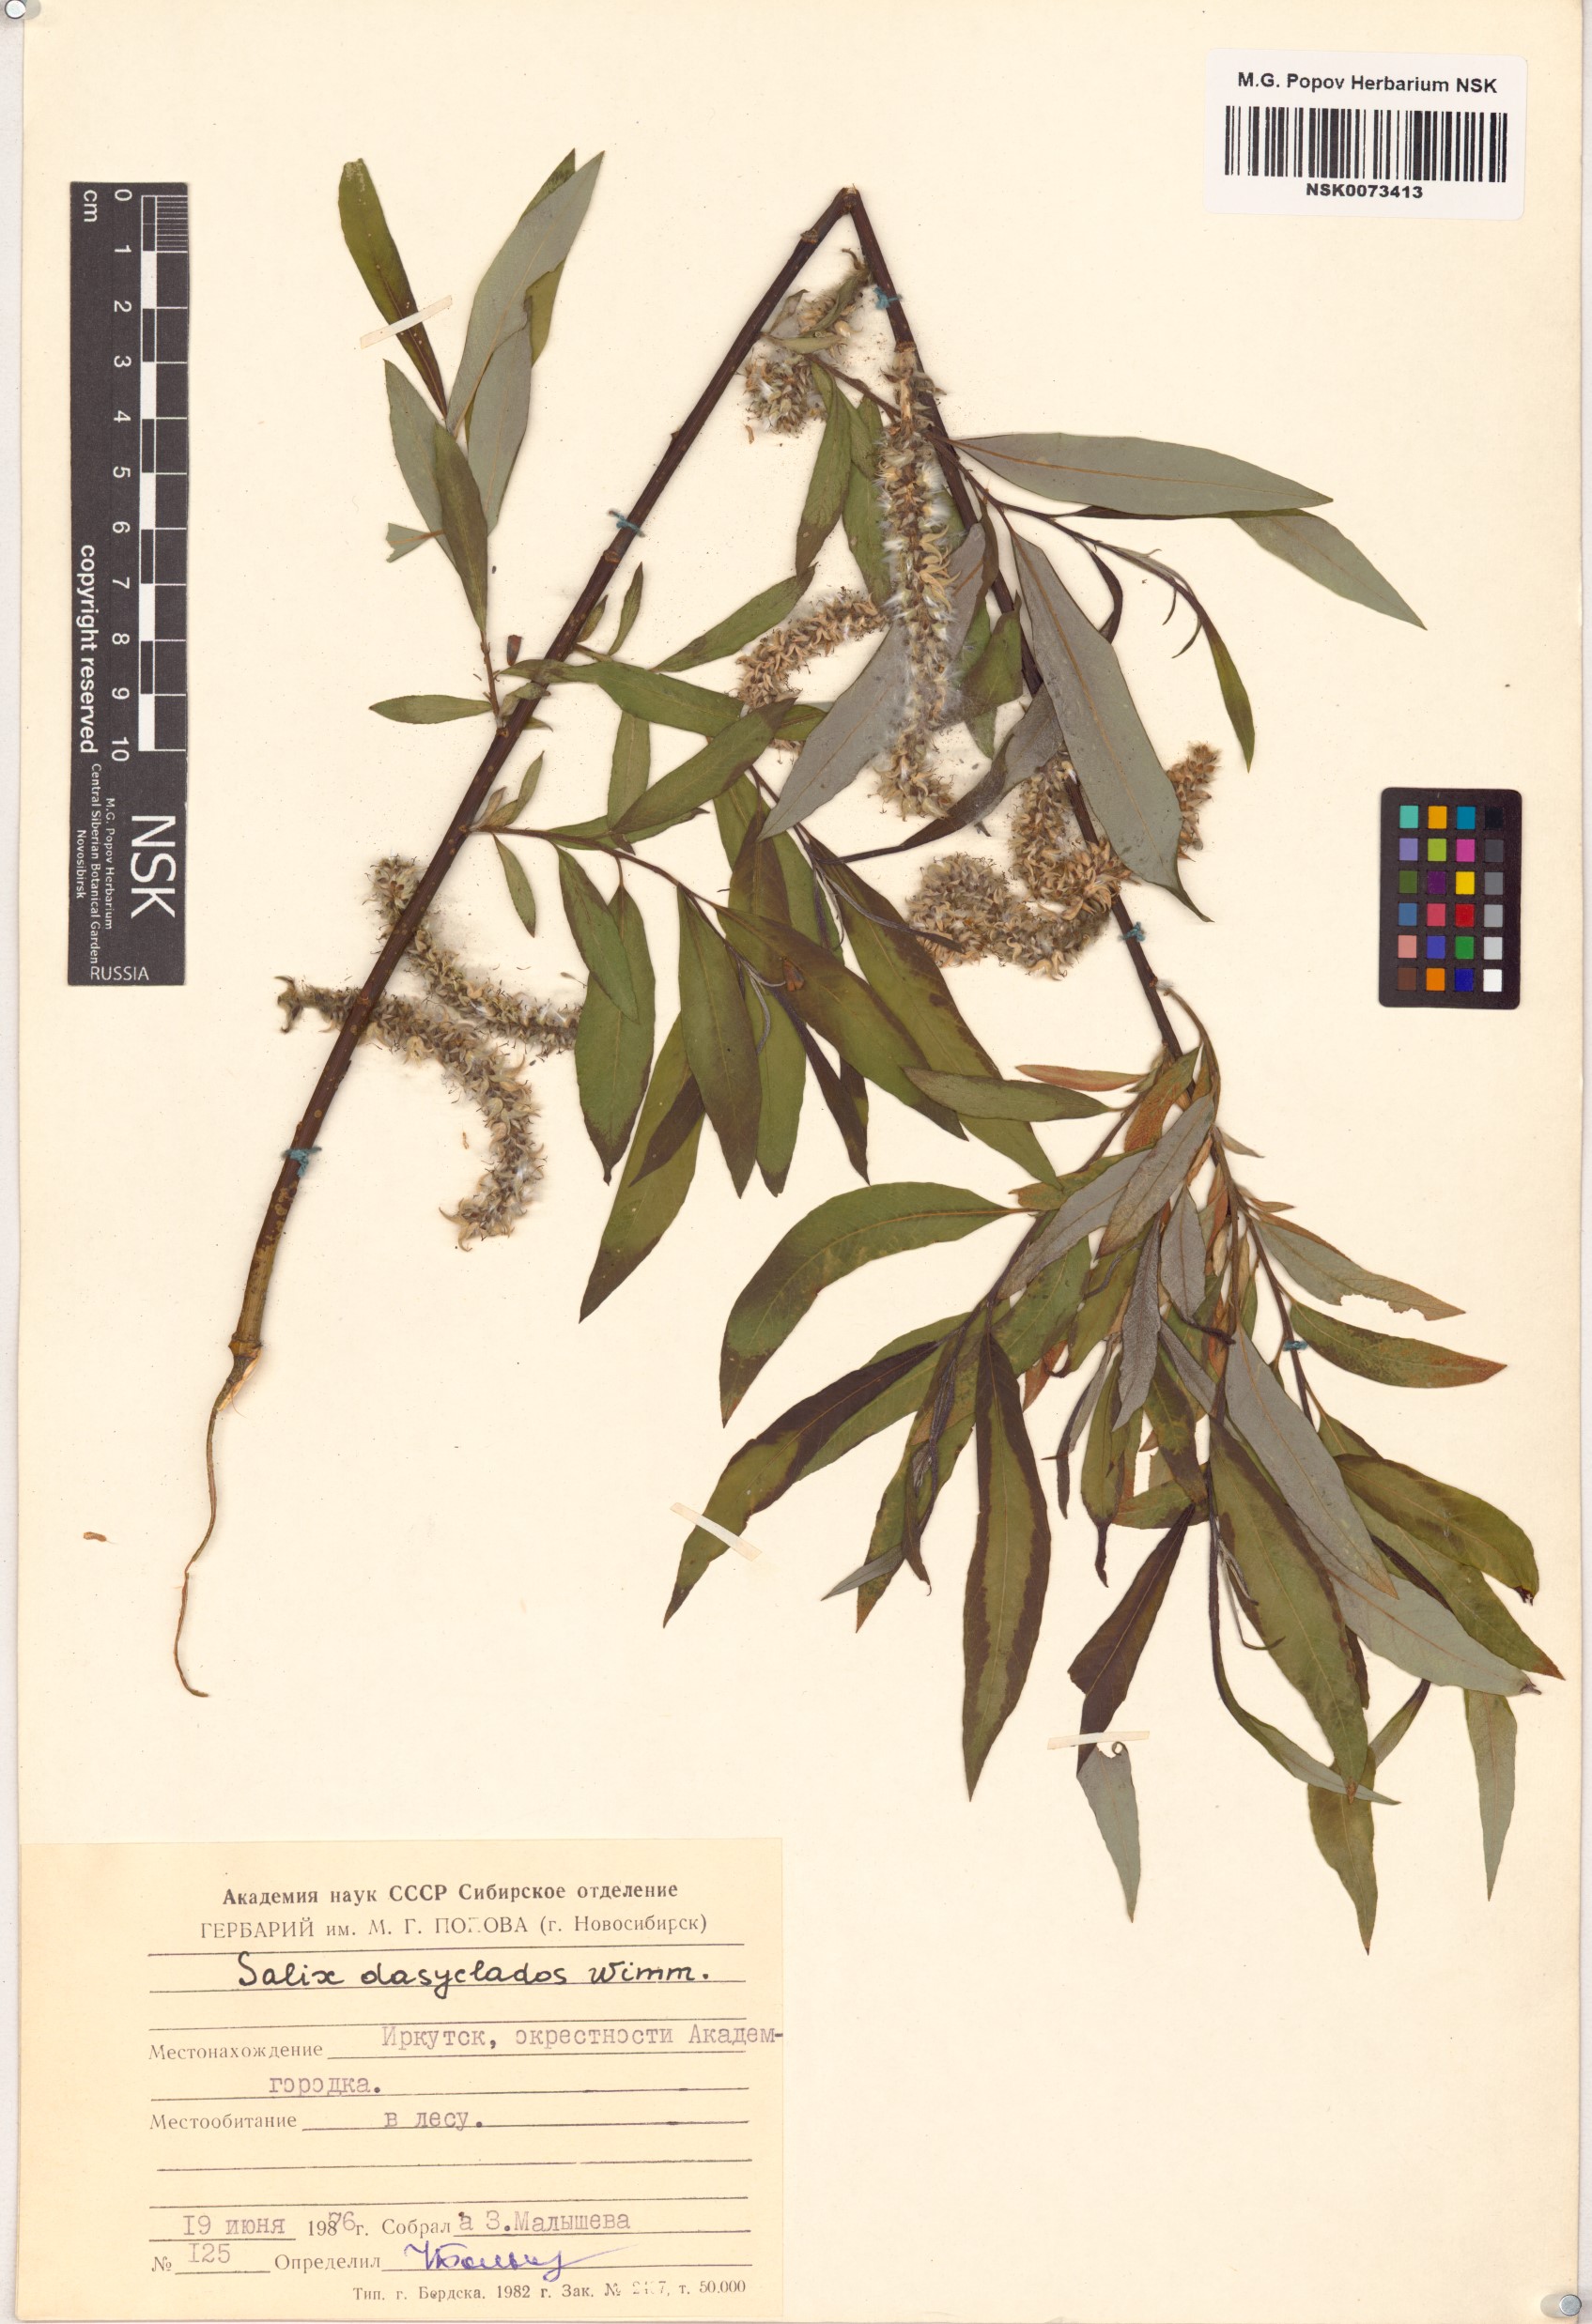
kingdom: Plantae
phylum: Tracheophyta
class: Magnoliopsida
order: Malpighiales
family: Salicaceae
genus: Salix
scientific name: Salix gmelinii
